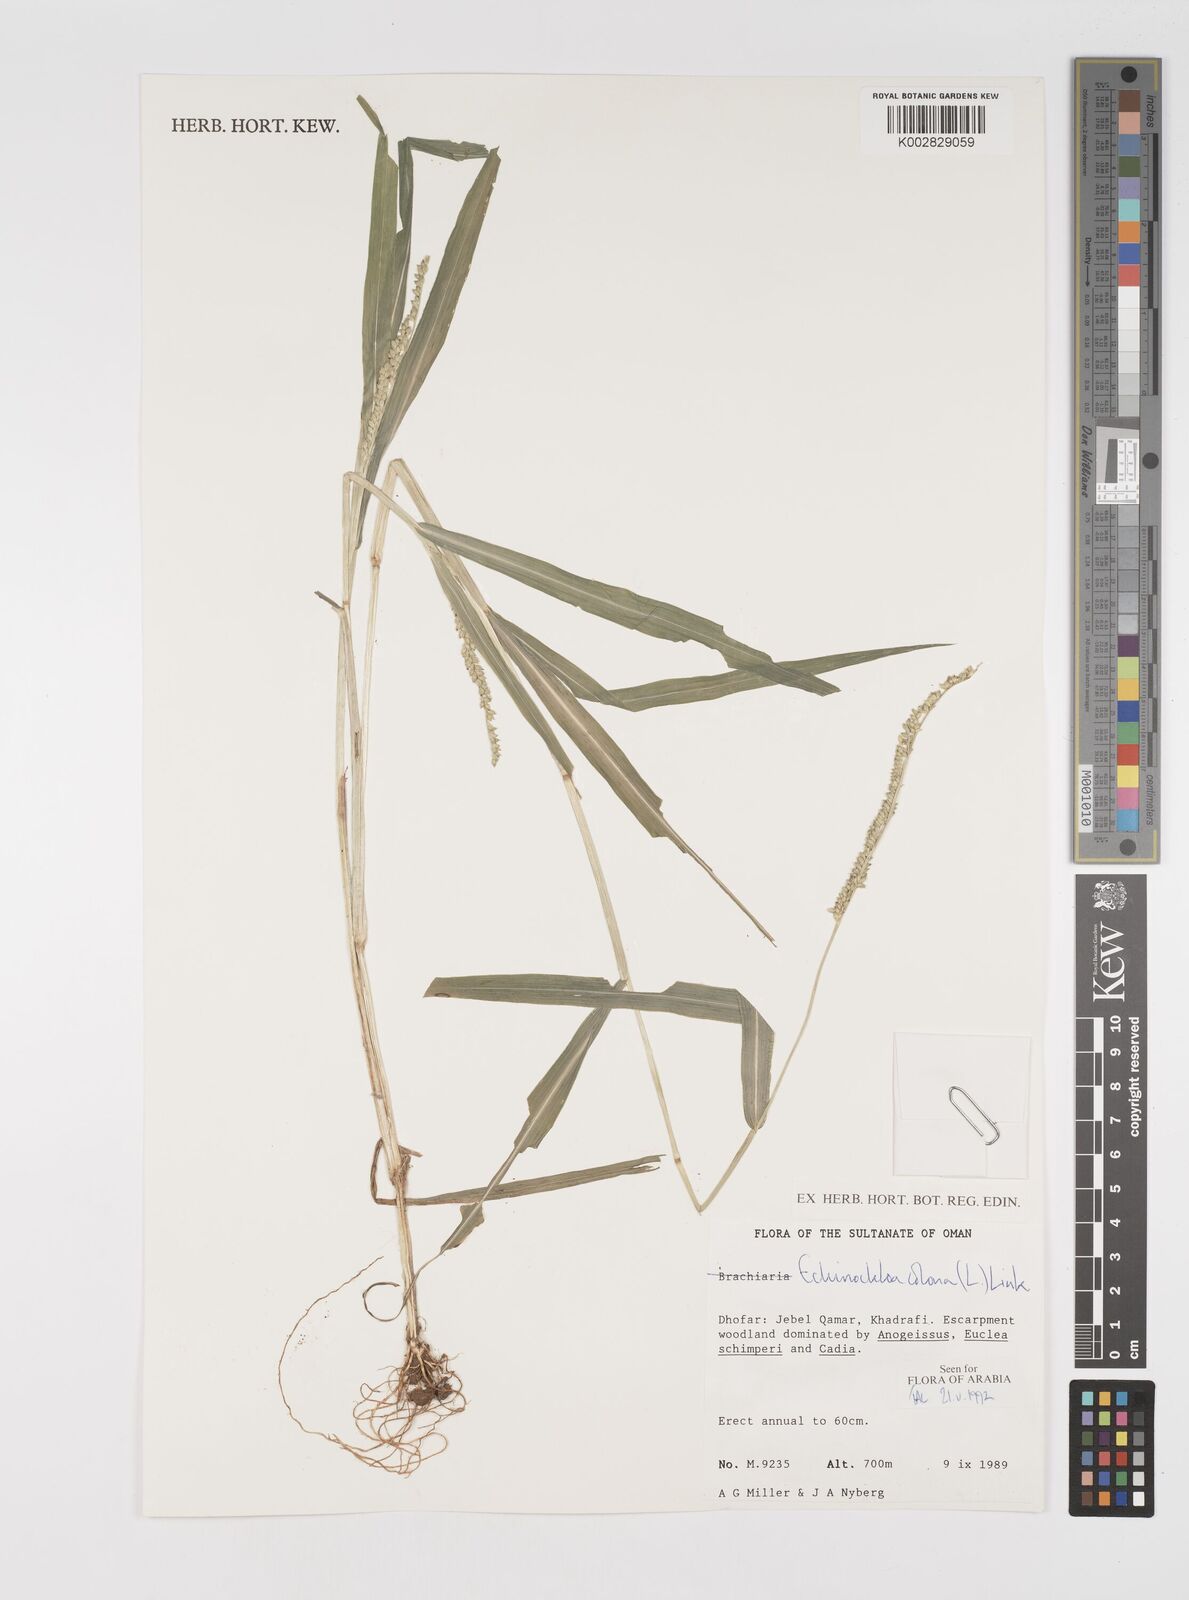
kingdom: Plantae
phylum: Tracheophyta
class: Liliopsida
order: Poales
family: Poaceae
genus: Echinochloa
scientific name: Echinochloa colonum
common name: Jungle rice
